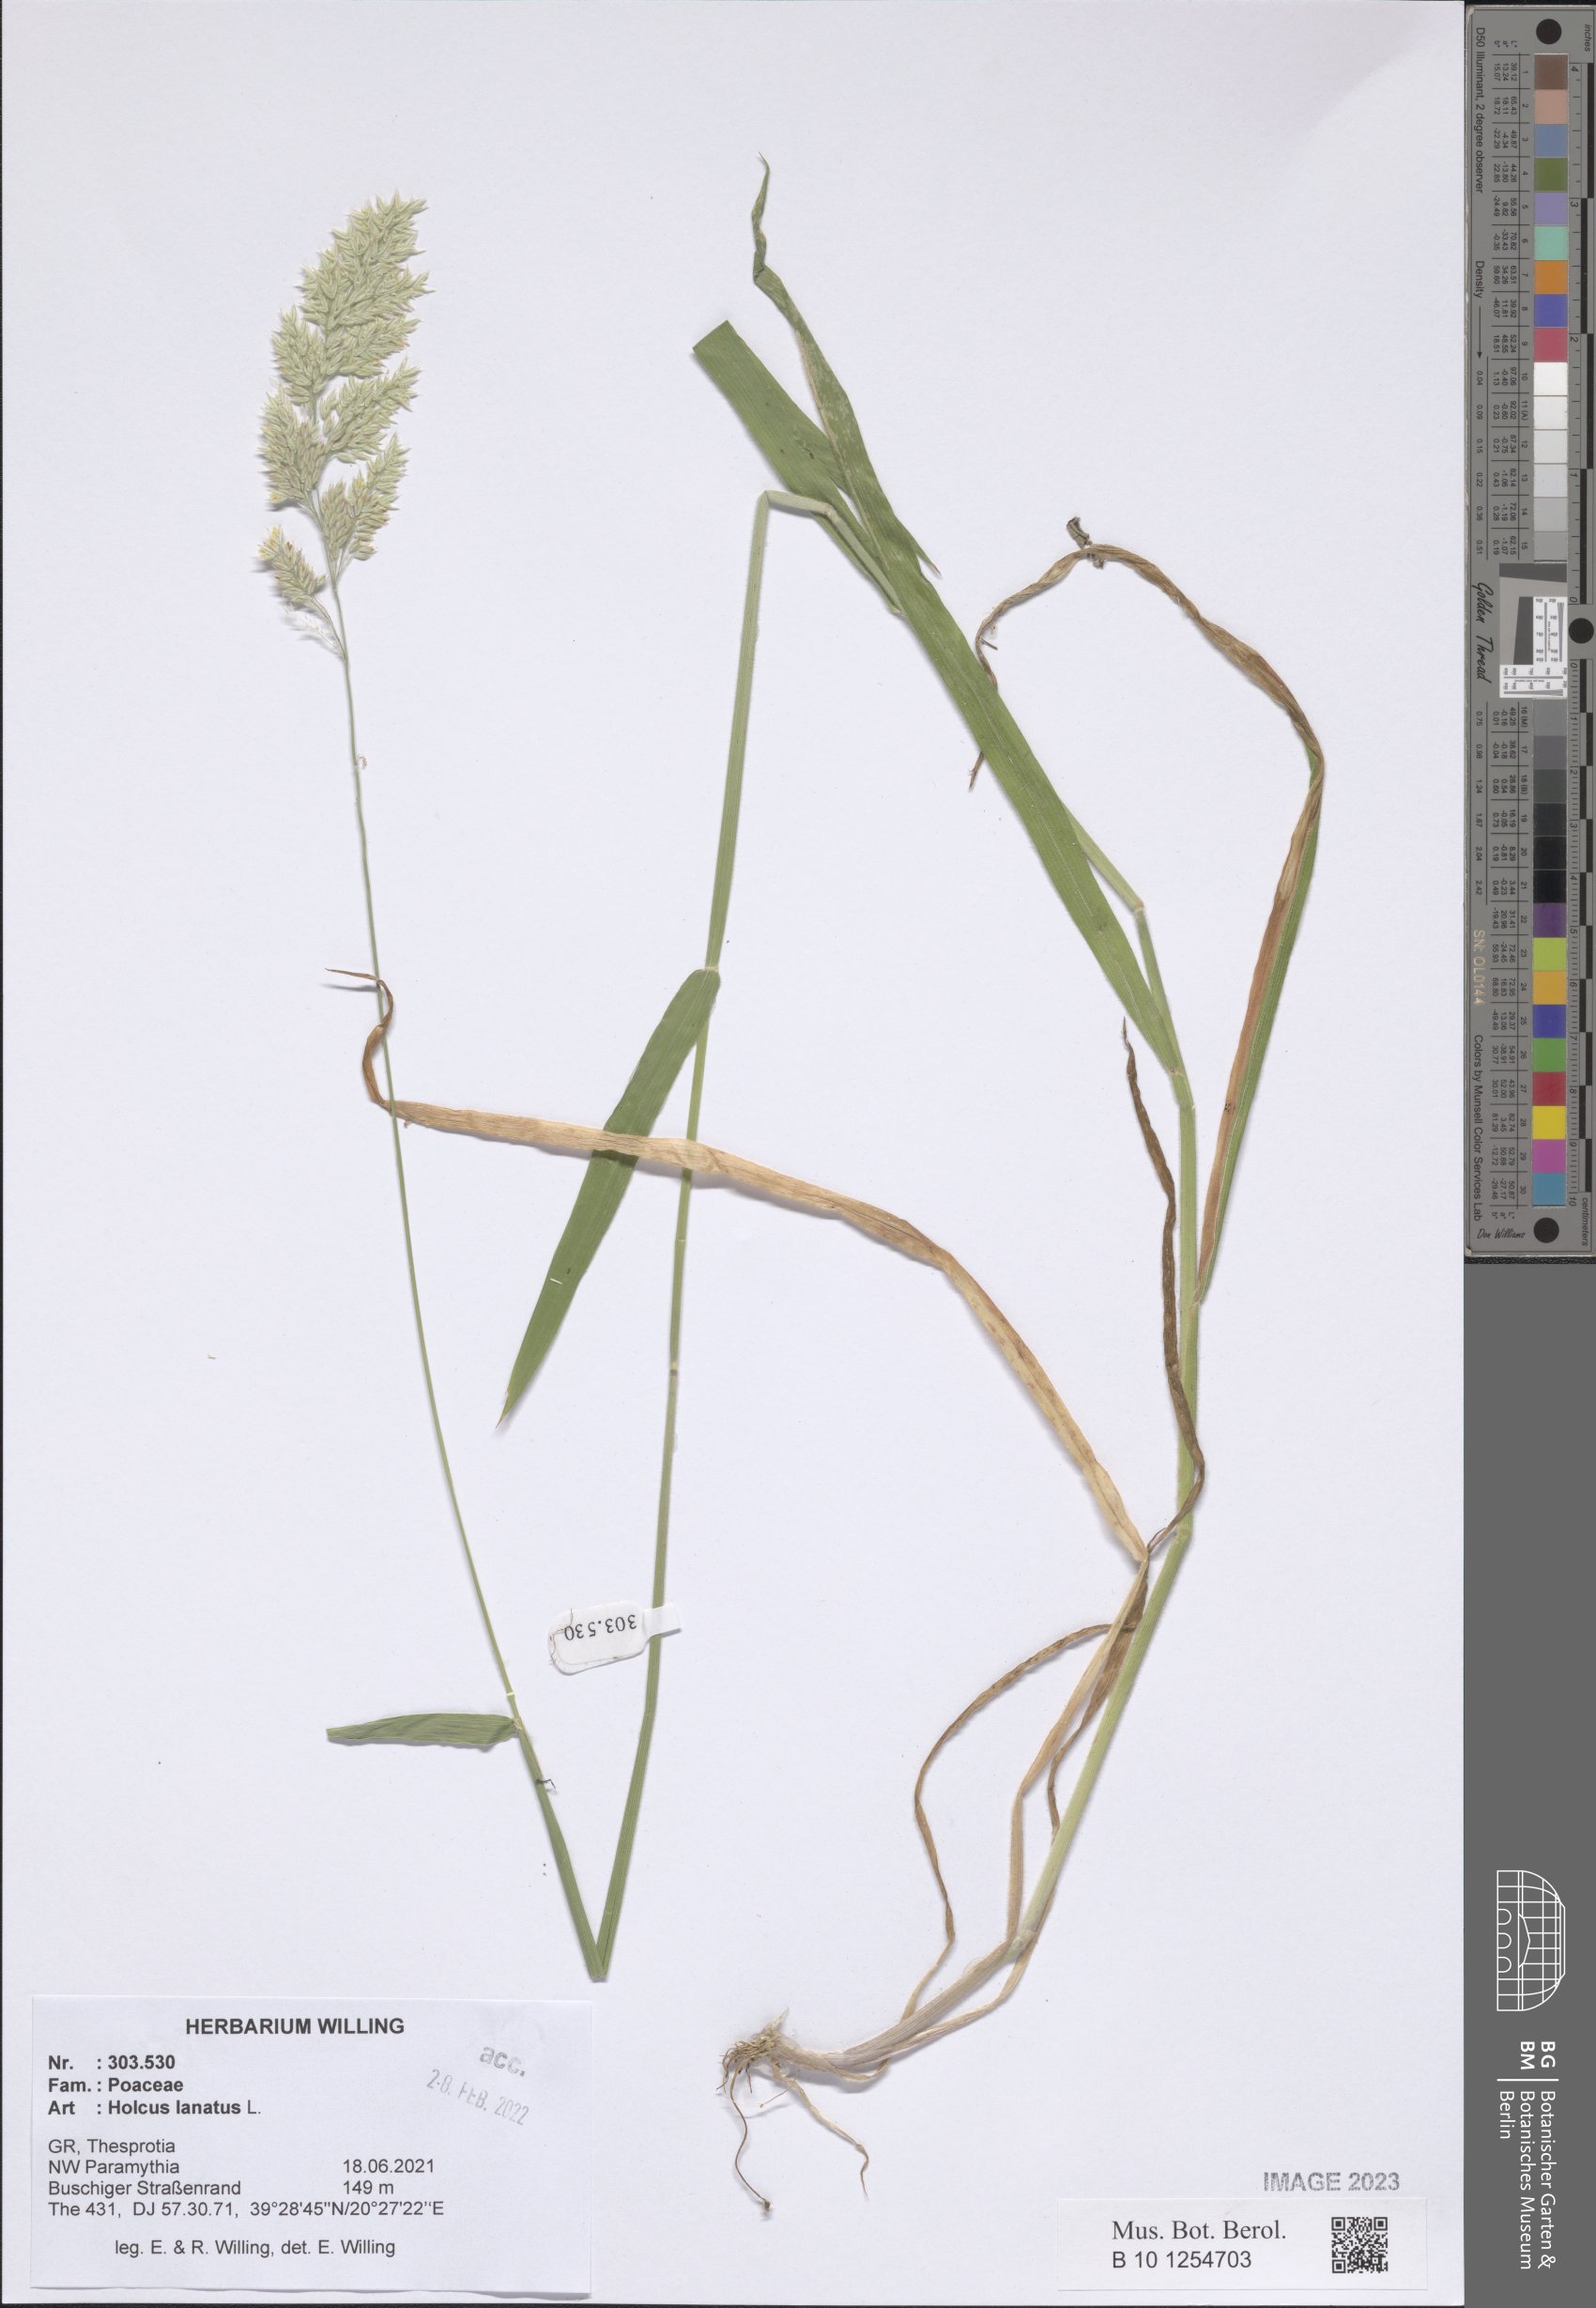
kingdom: Plantae
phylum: Tracheophyta
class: Liliopsida
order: Poales
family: Poaceae
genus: Holcus
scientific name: Holcus lanatus
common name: Yorkshire-fog
